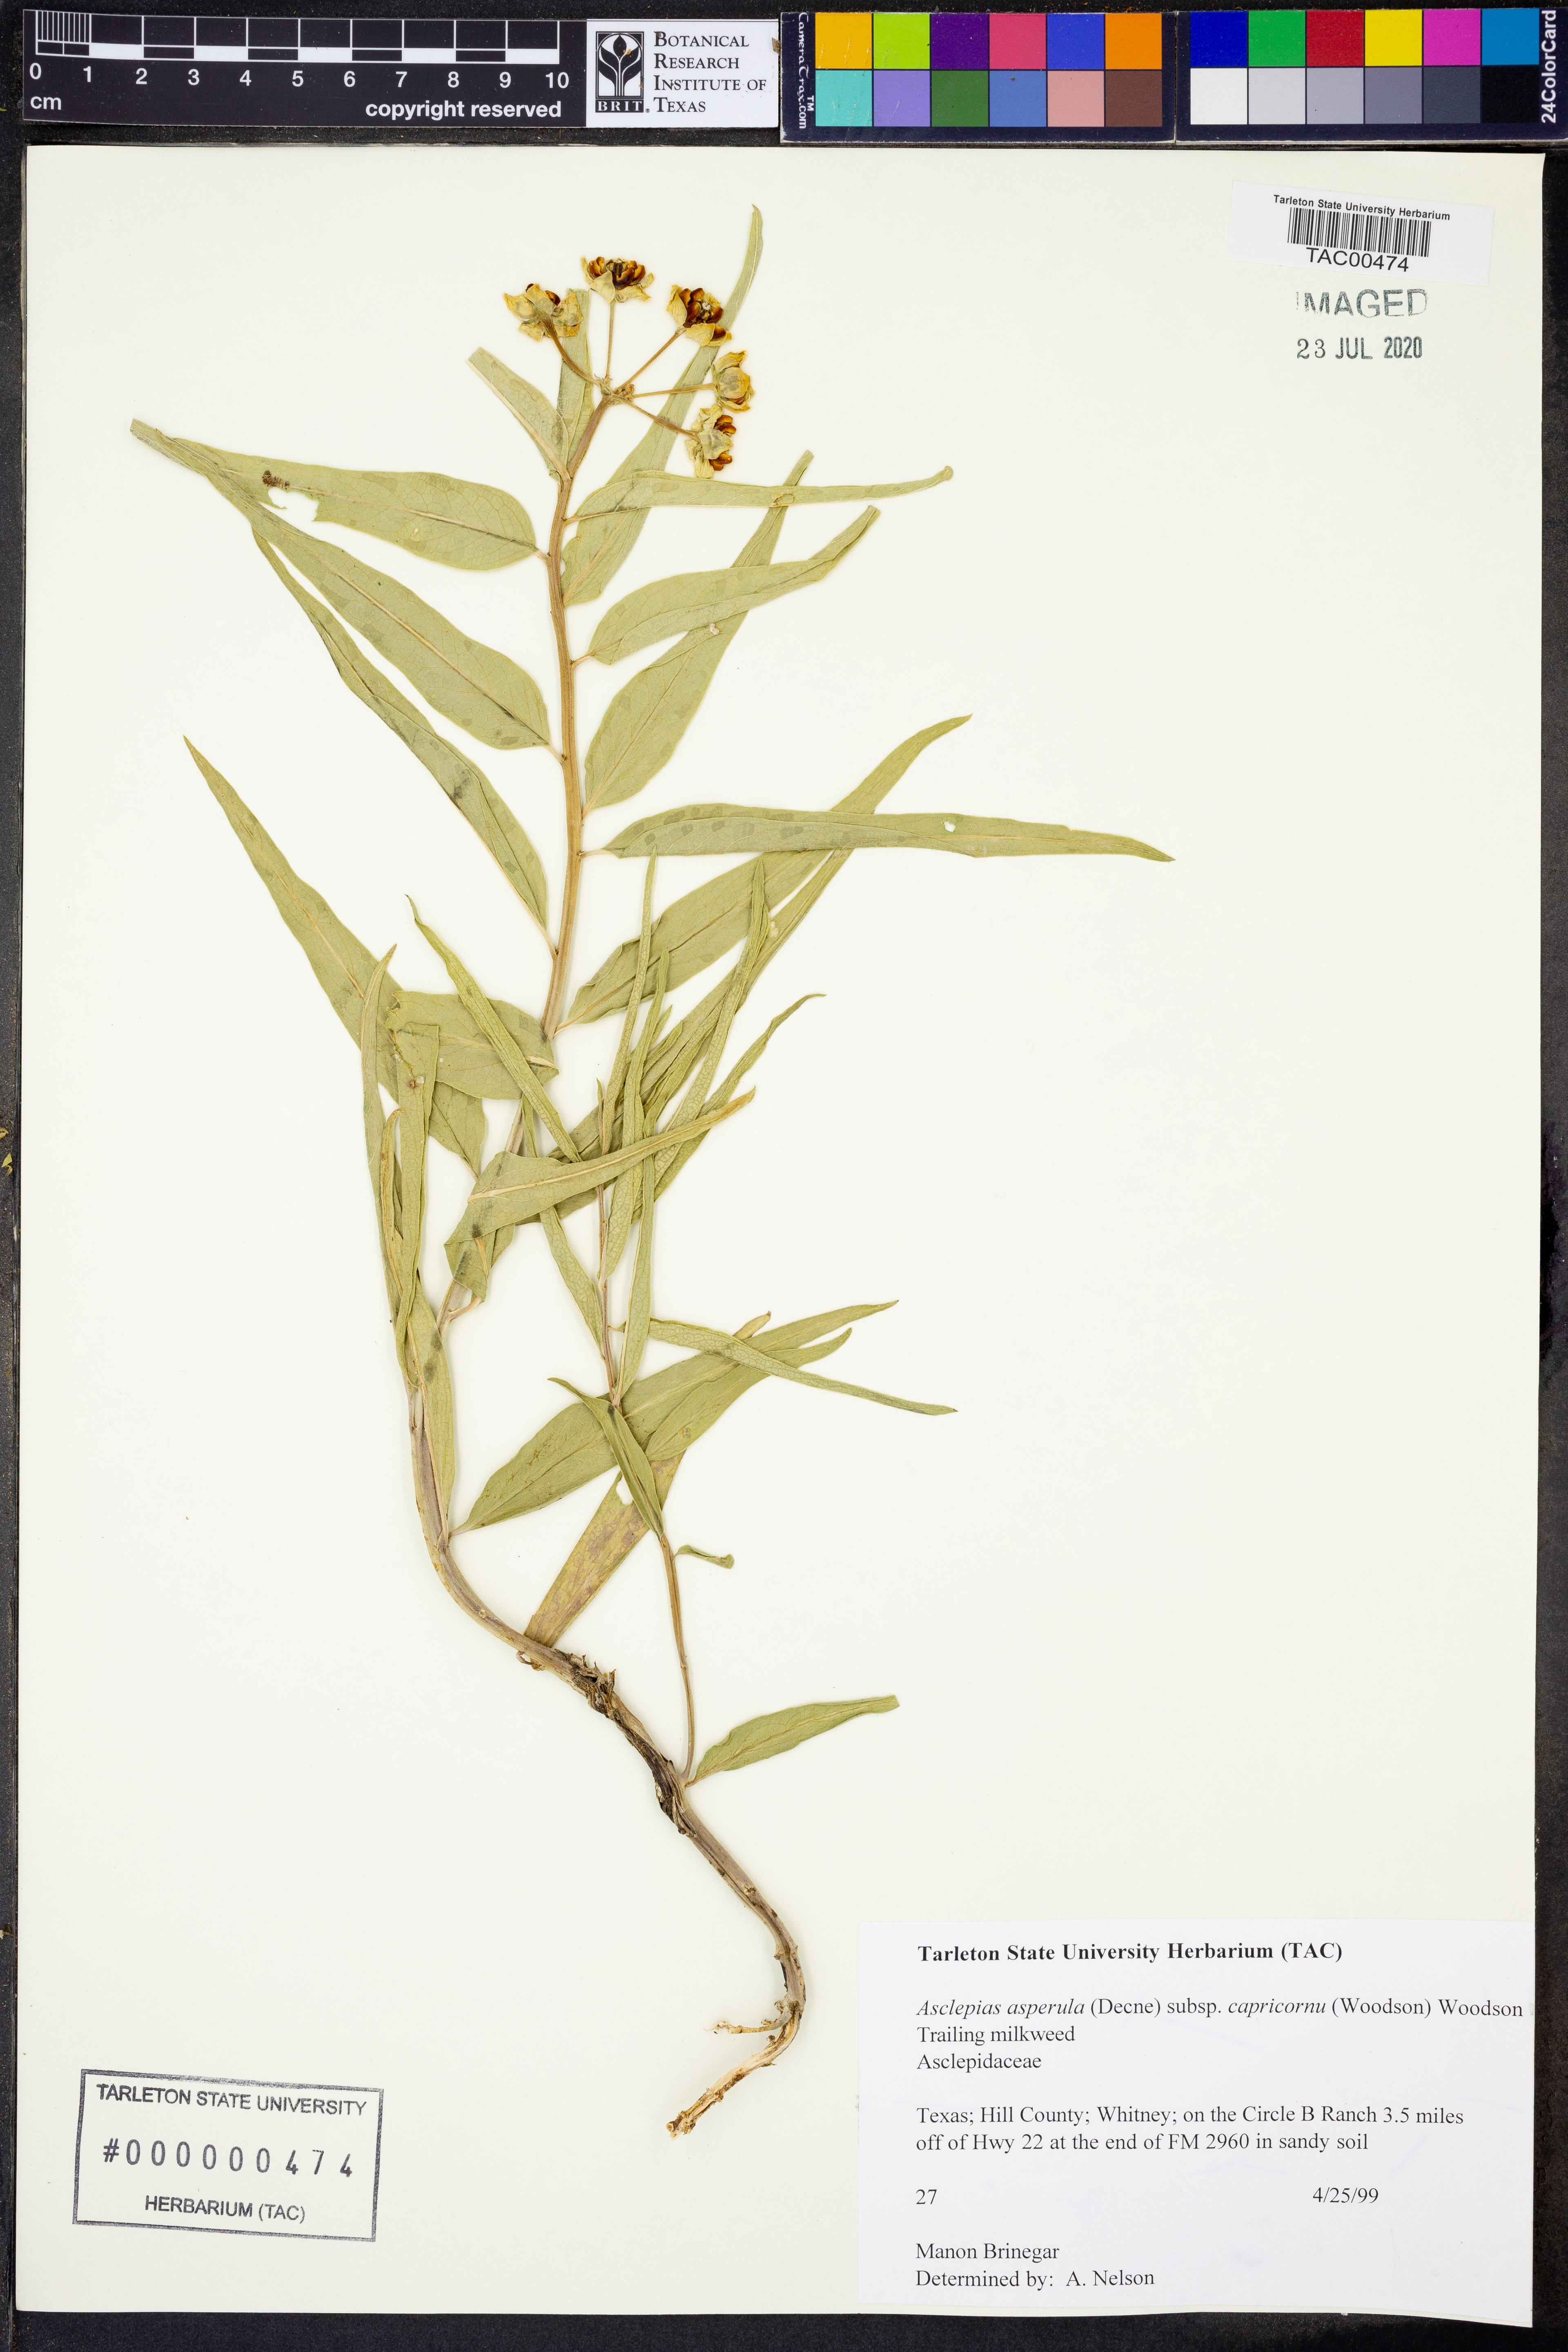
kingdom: Plantae
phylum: Tracheophyta
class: Magnoliopsida
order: Gentianales
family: Apocynaceae
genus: Asclepias
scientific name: Asclepias asperula
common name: Antelope horns
